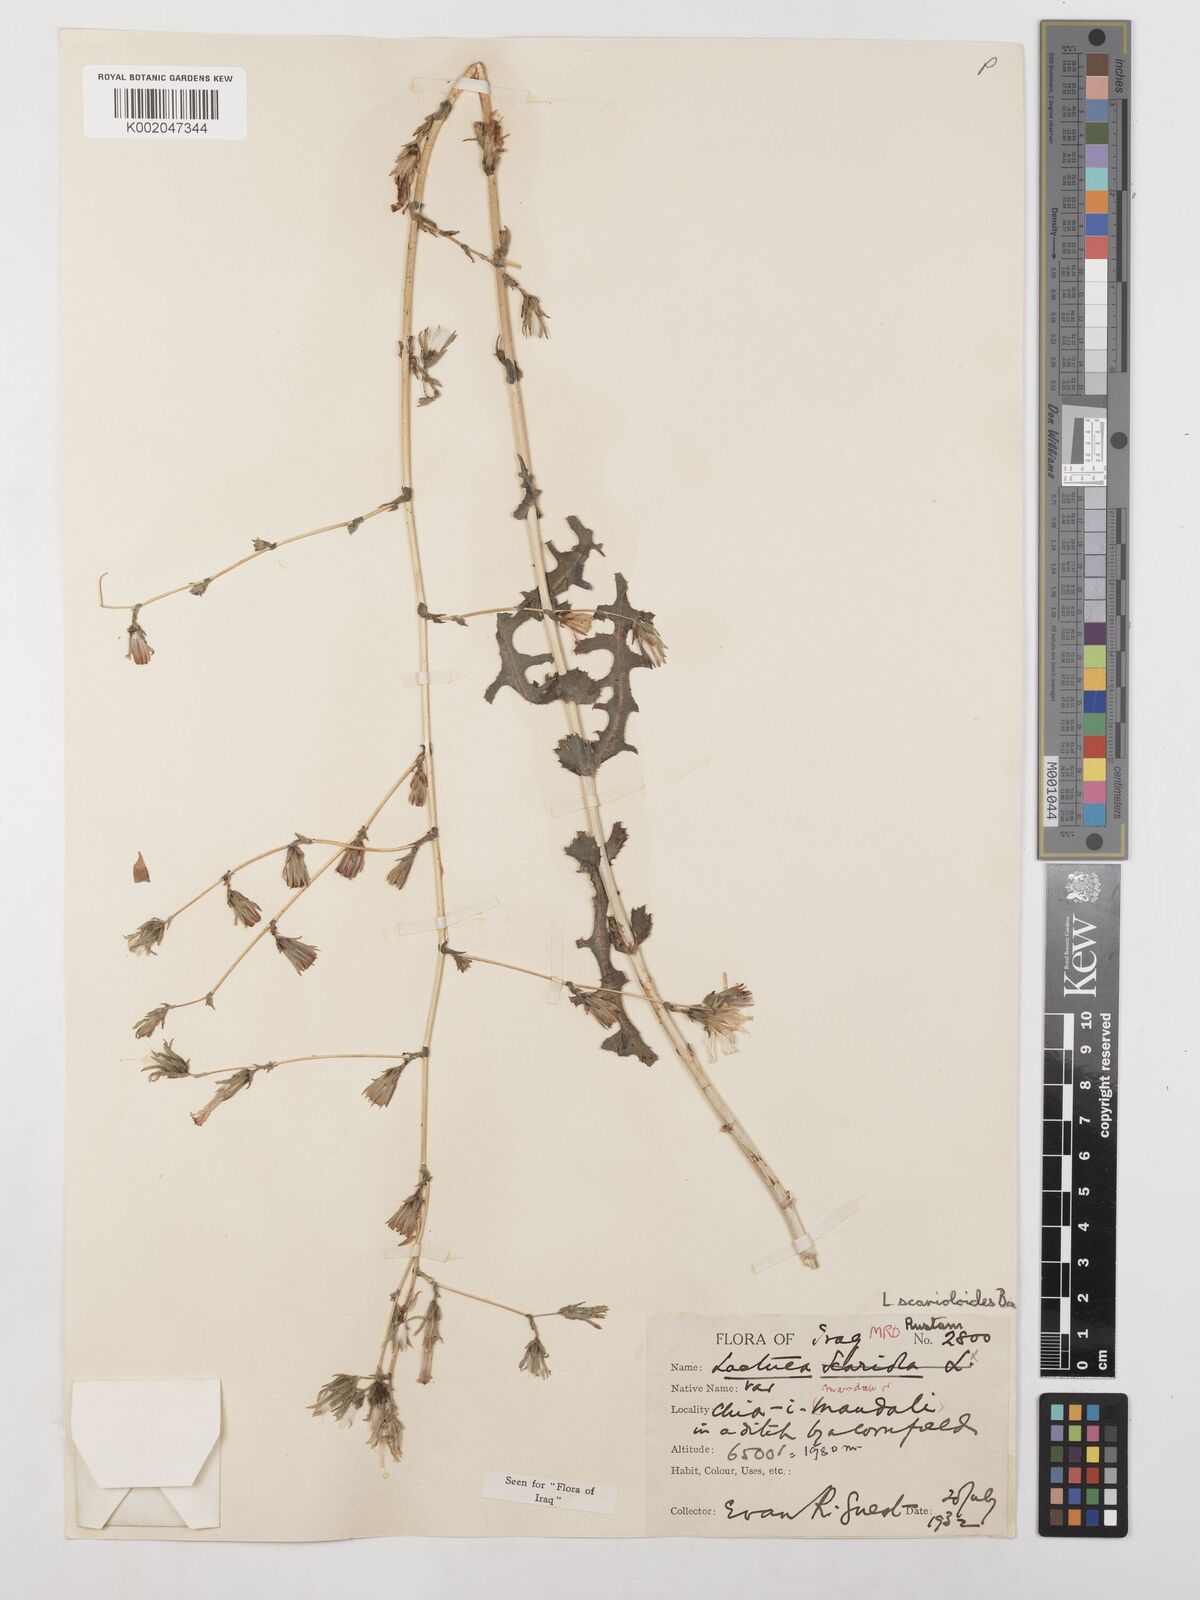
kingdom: Plantae
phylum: Tracheophyta
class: Magnoliopsida
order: Asterales
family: Asteraceae
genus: Lactuca
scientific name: Lactuca scarioloides
